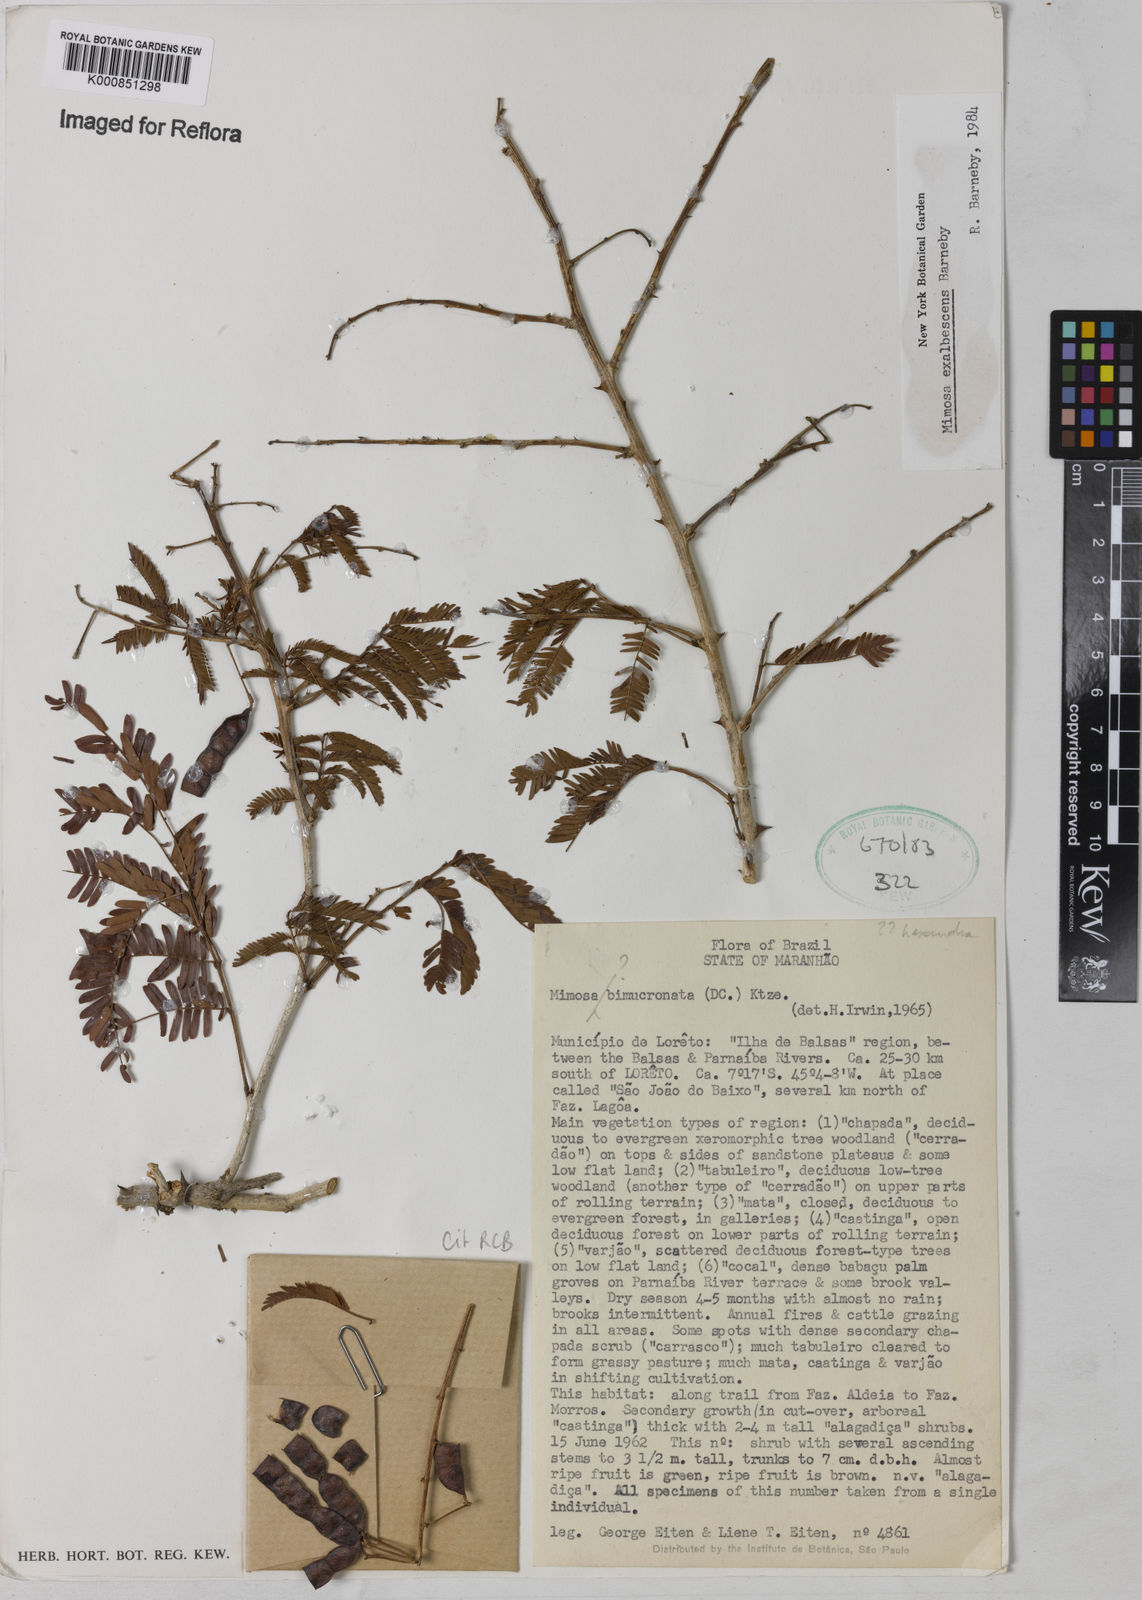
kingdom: Plantae
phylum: Tracheophyta
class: Magnoliopsida
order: Fabales
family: Fabaceae
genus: Mimosa
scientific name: Mimosa exalbescens
